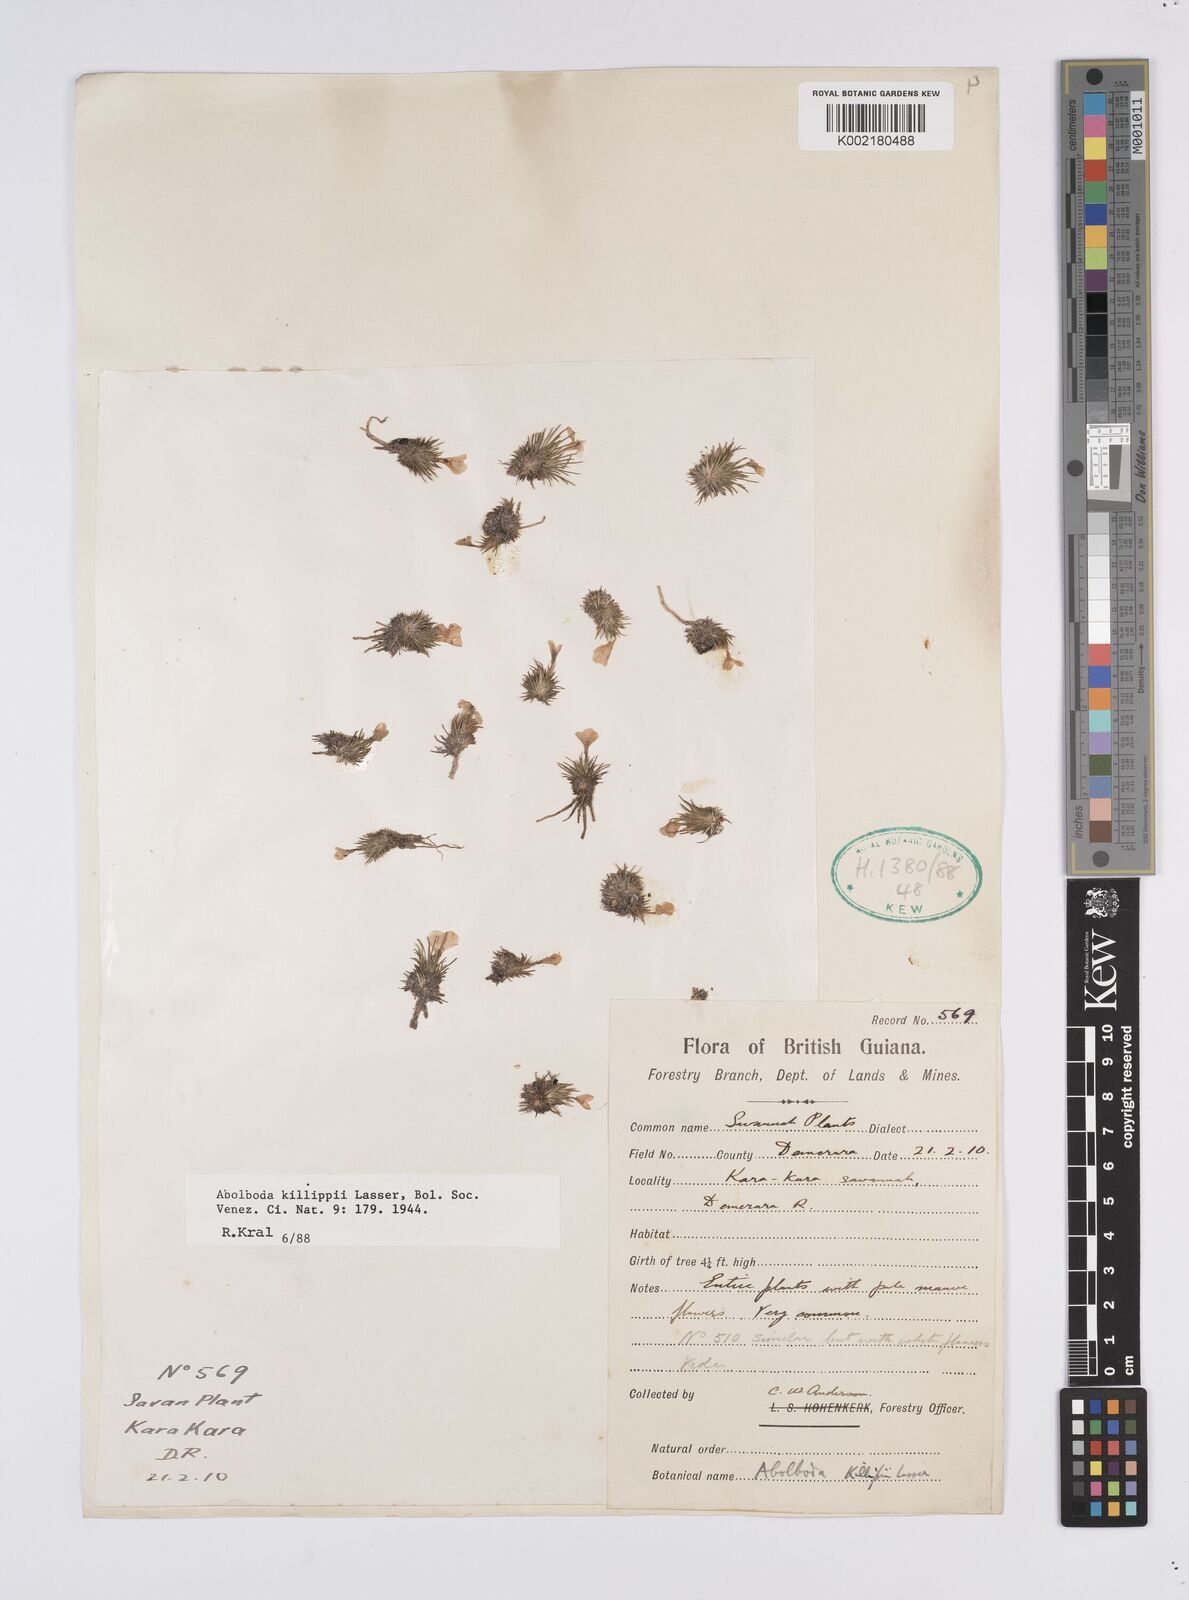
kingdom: Plantae
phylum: Tracheophyta
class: Liliopsida
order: Poales
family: Xyridaceae
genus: Abolboda
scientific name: Abolboda killipii
